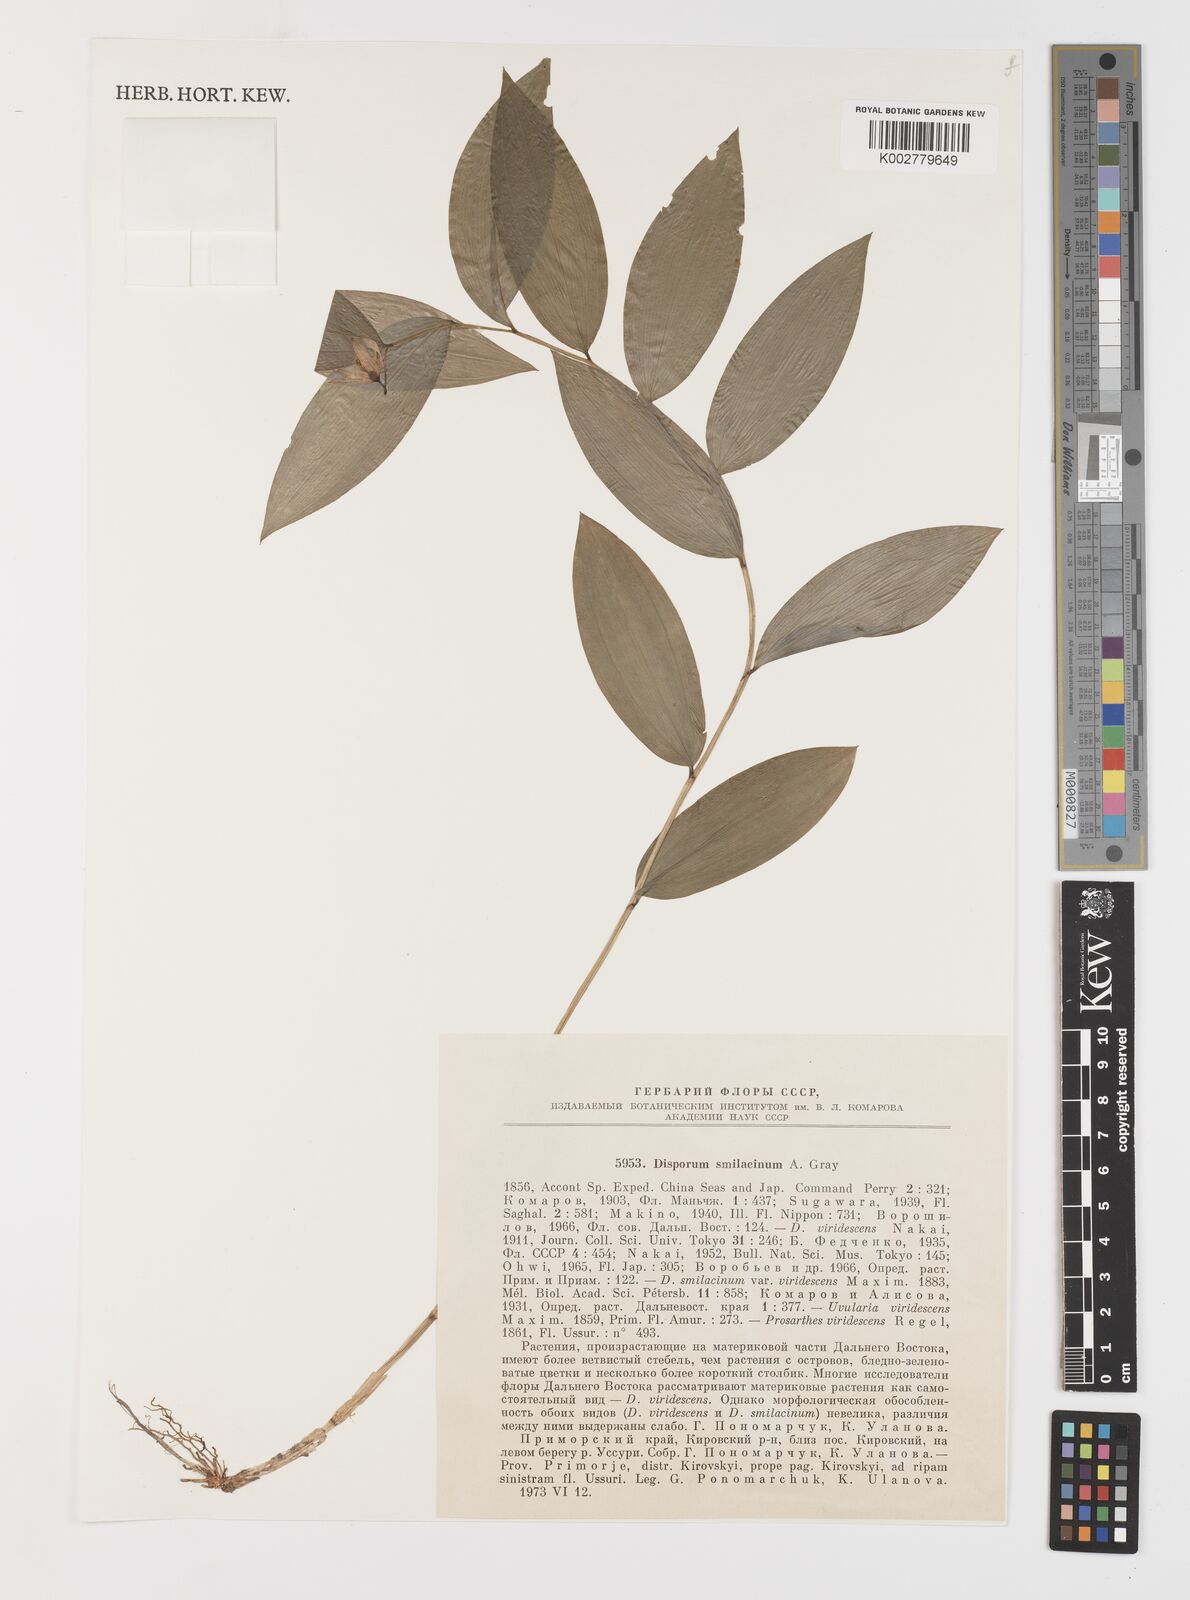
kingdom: Plantae
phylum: Tracheophyta
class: Liliopsida
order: Liliales
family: Colchicaceae
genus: Disporum
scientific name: Disporum smilacinum
